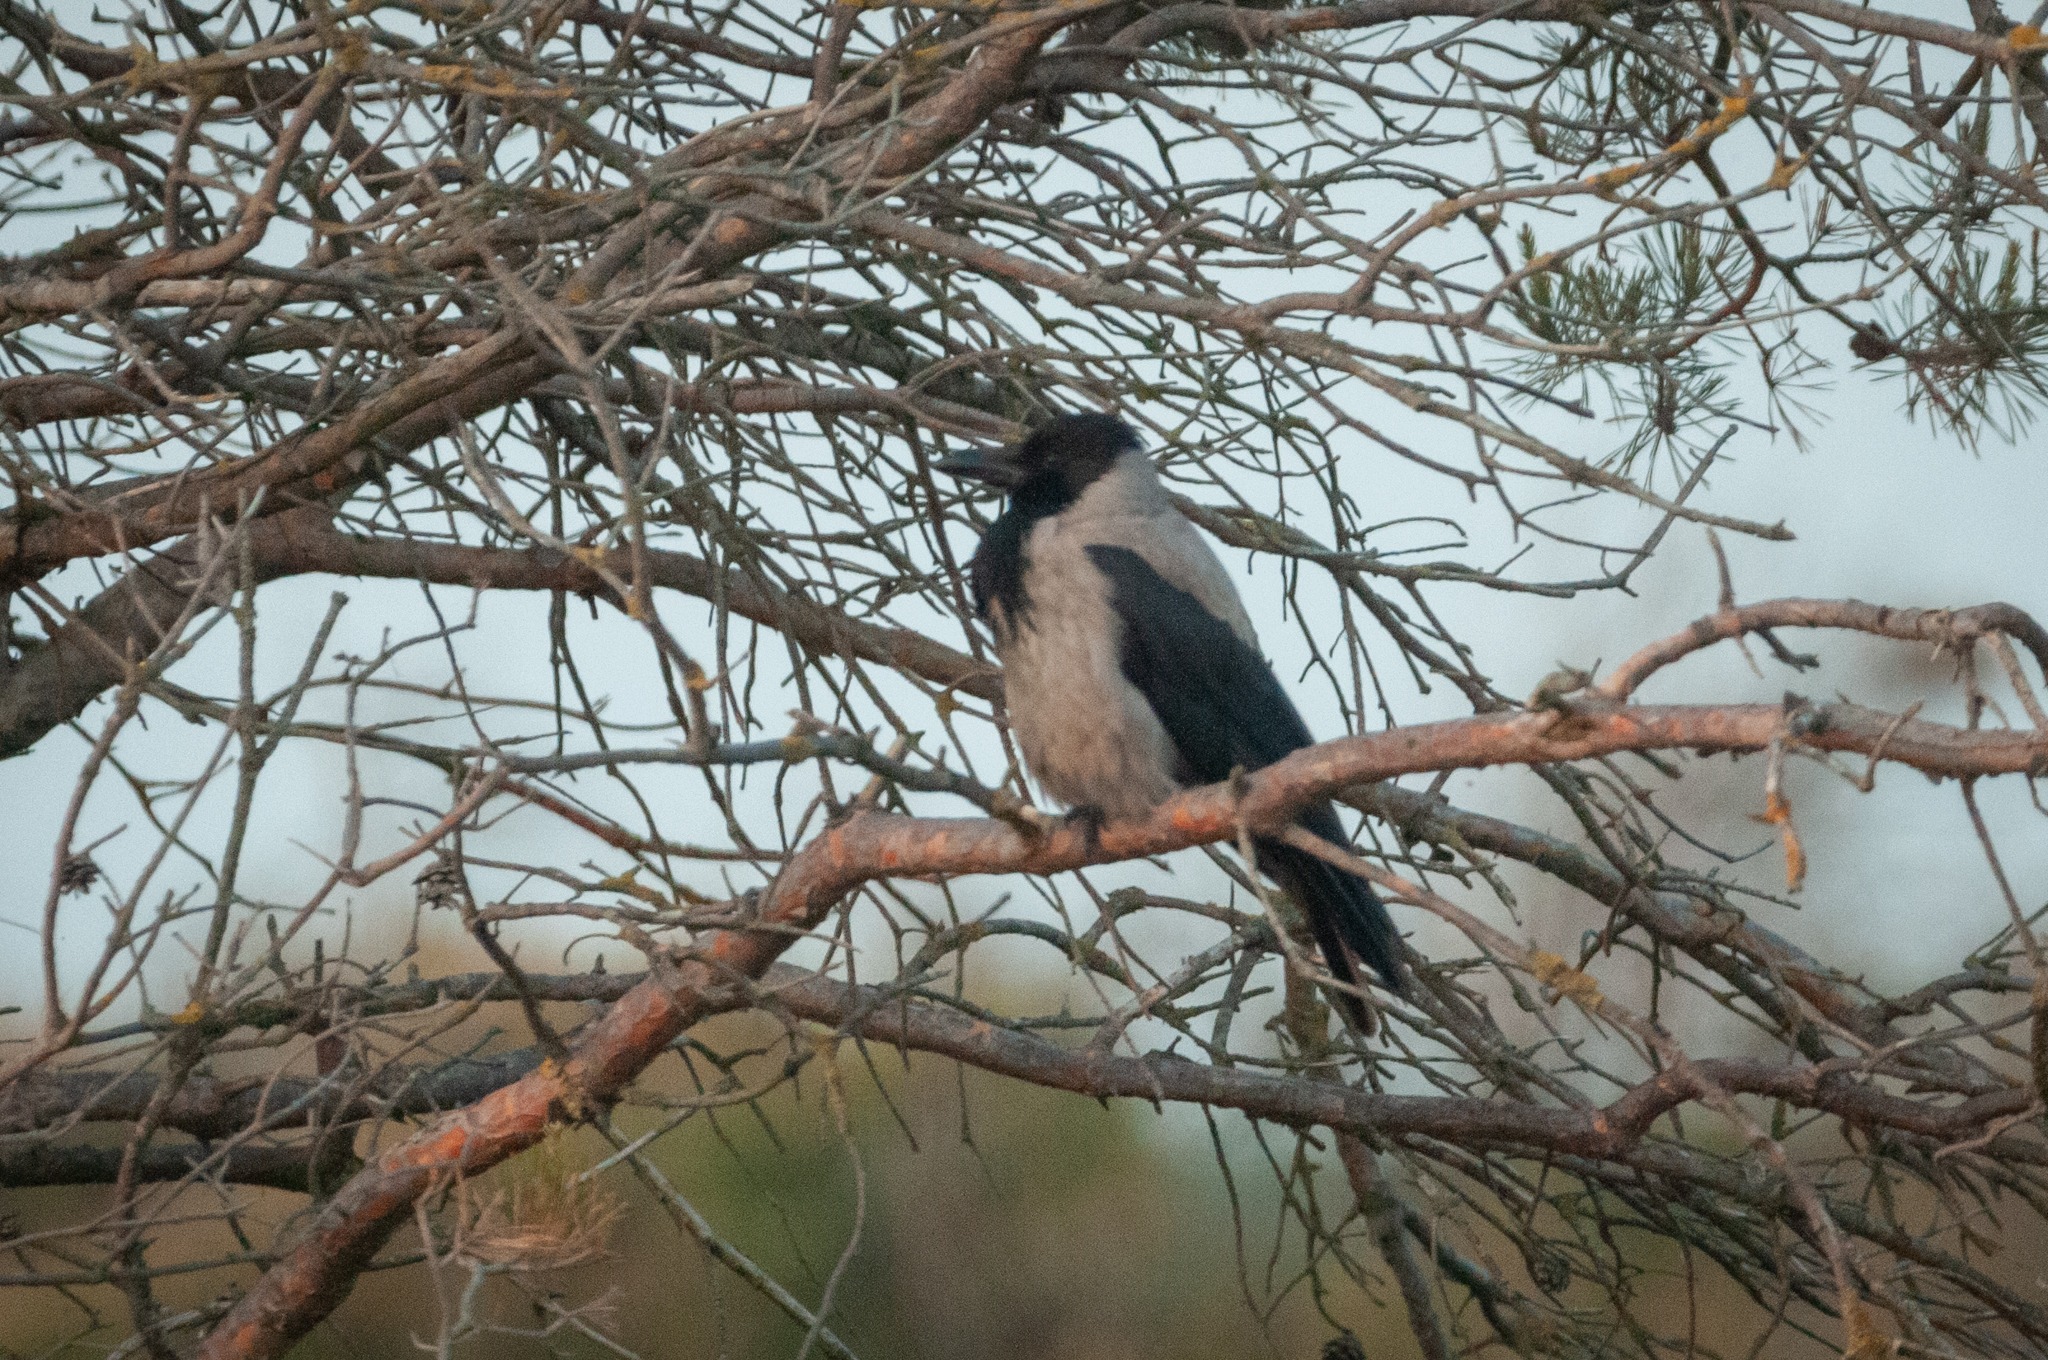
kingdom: Animalia
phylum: Chordata
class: Aves
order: Passeriformes
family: Corvidae
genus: Corvus
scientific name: Corvus cornix
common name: Gråkrage
